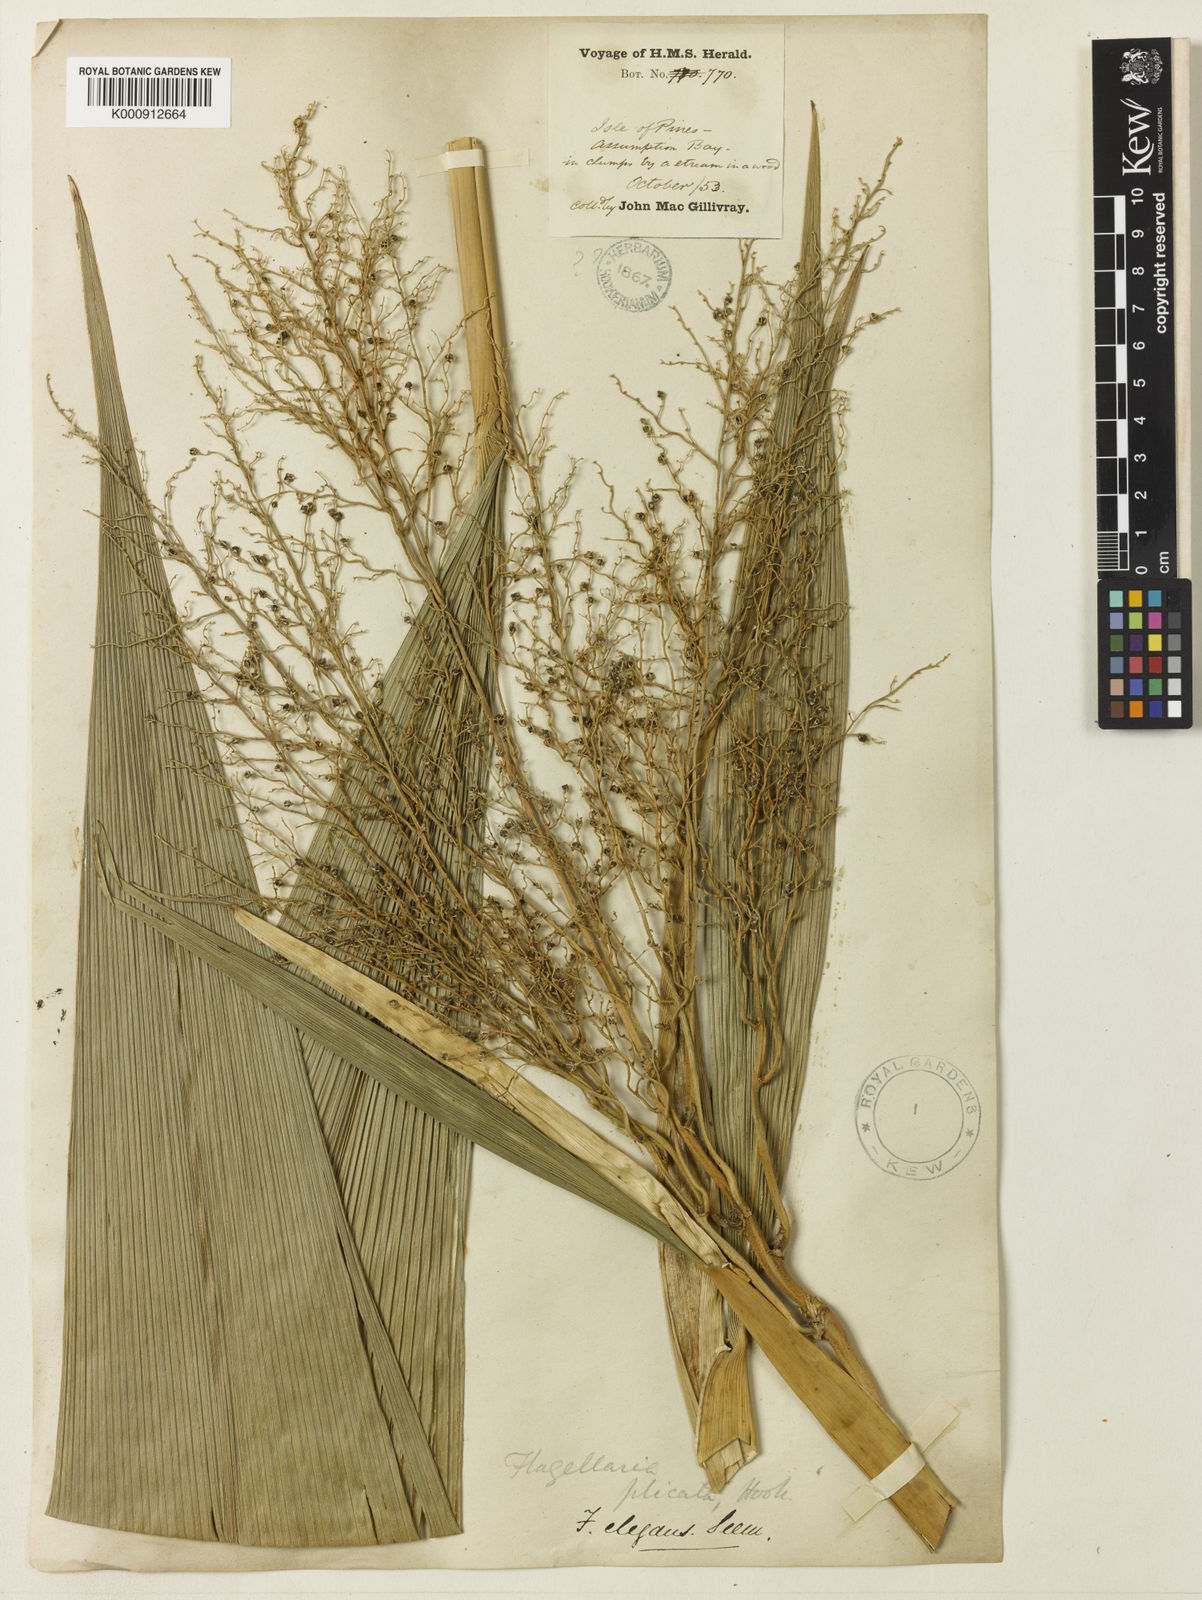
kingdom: Plantae
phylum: Tracheophyta
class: Liliopsida
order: Poales
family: Joinvilleaceae
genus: Joinvillea
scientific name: Joinvillea plicata
